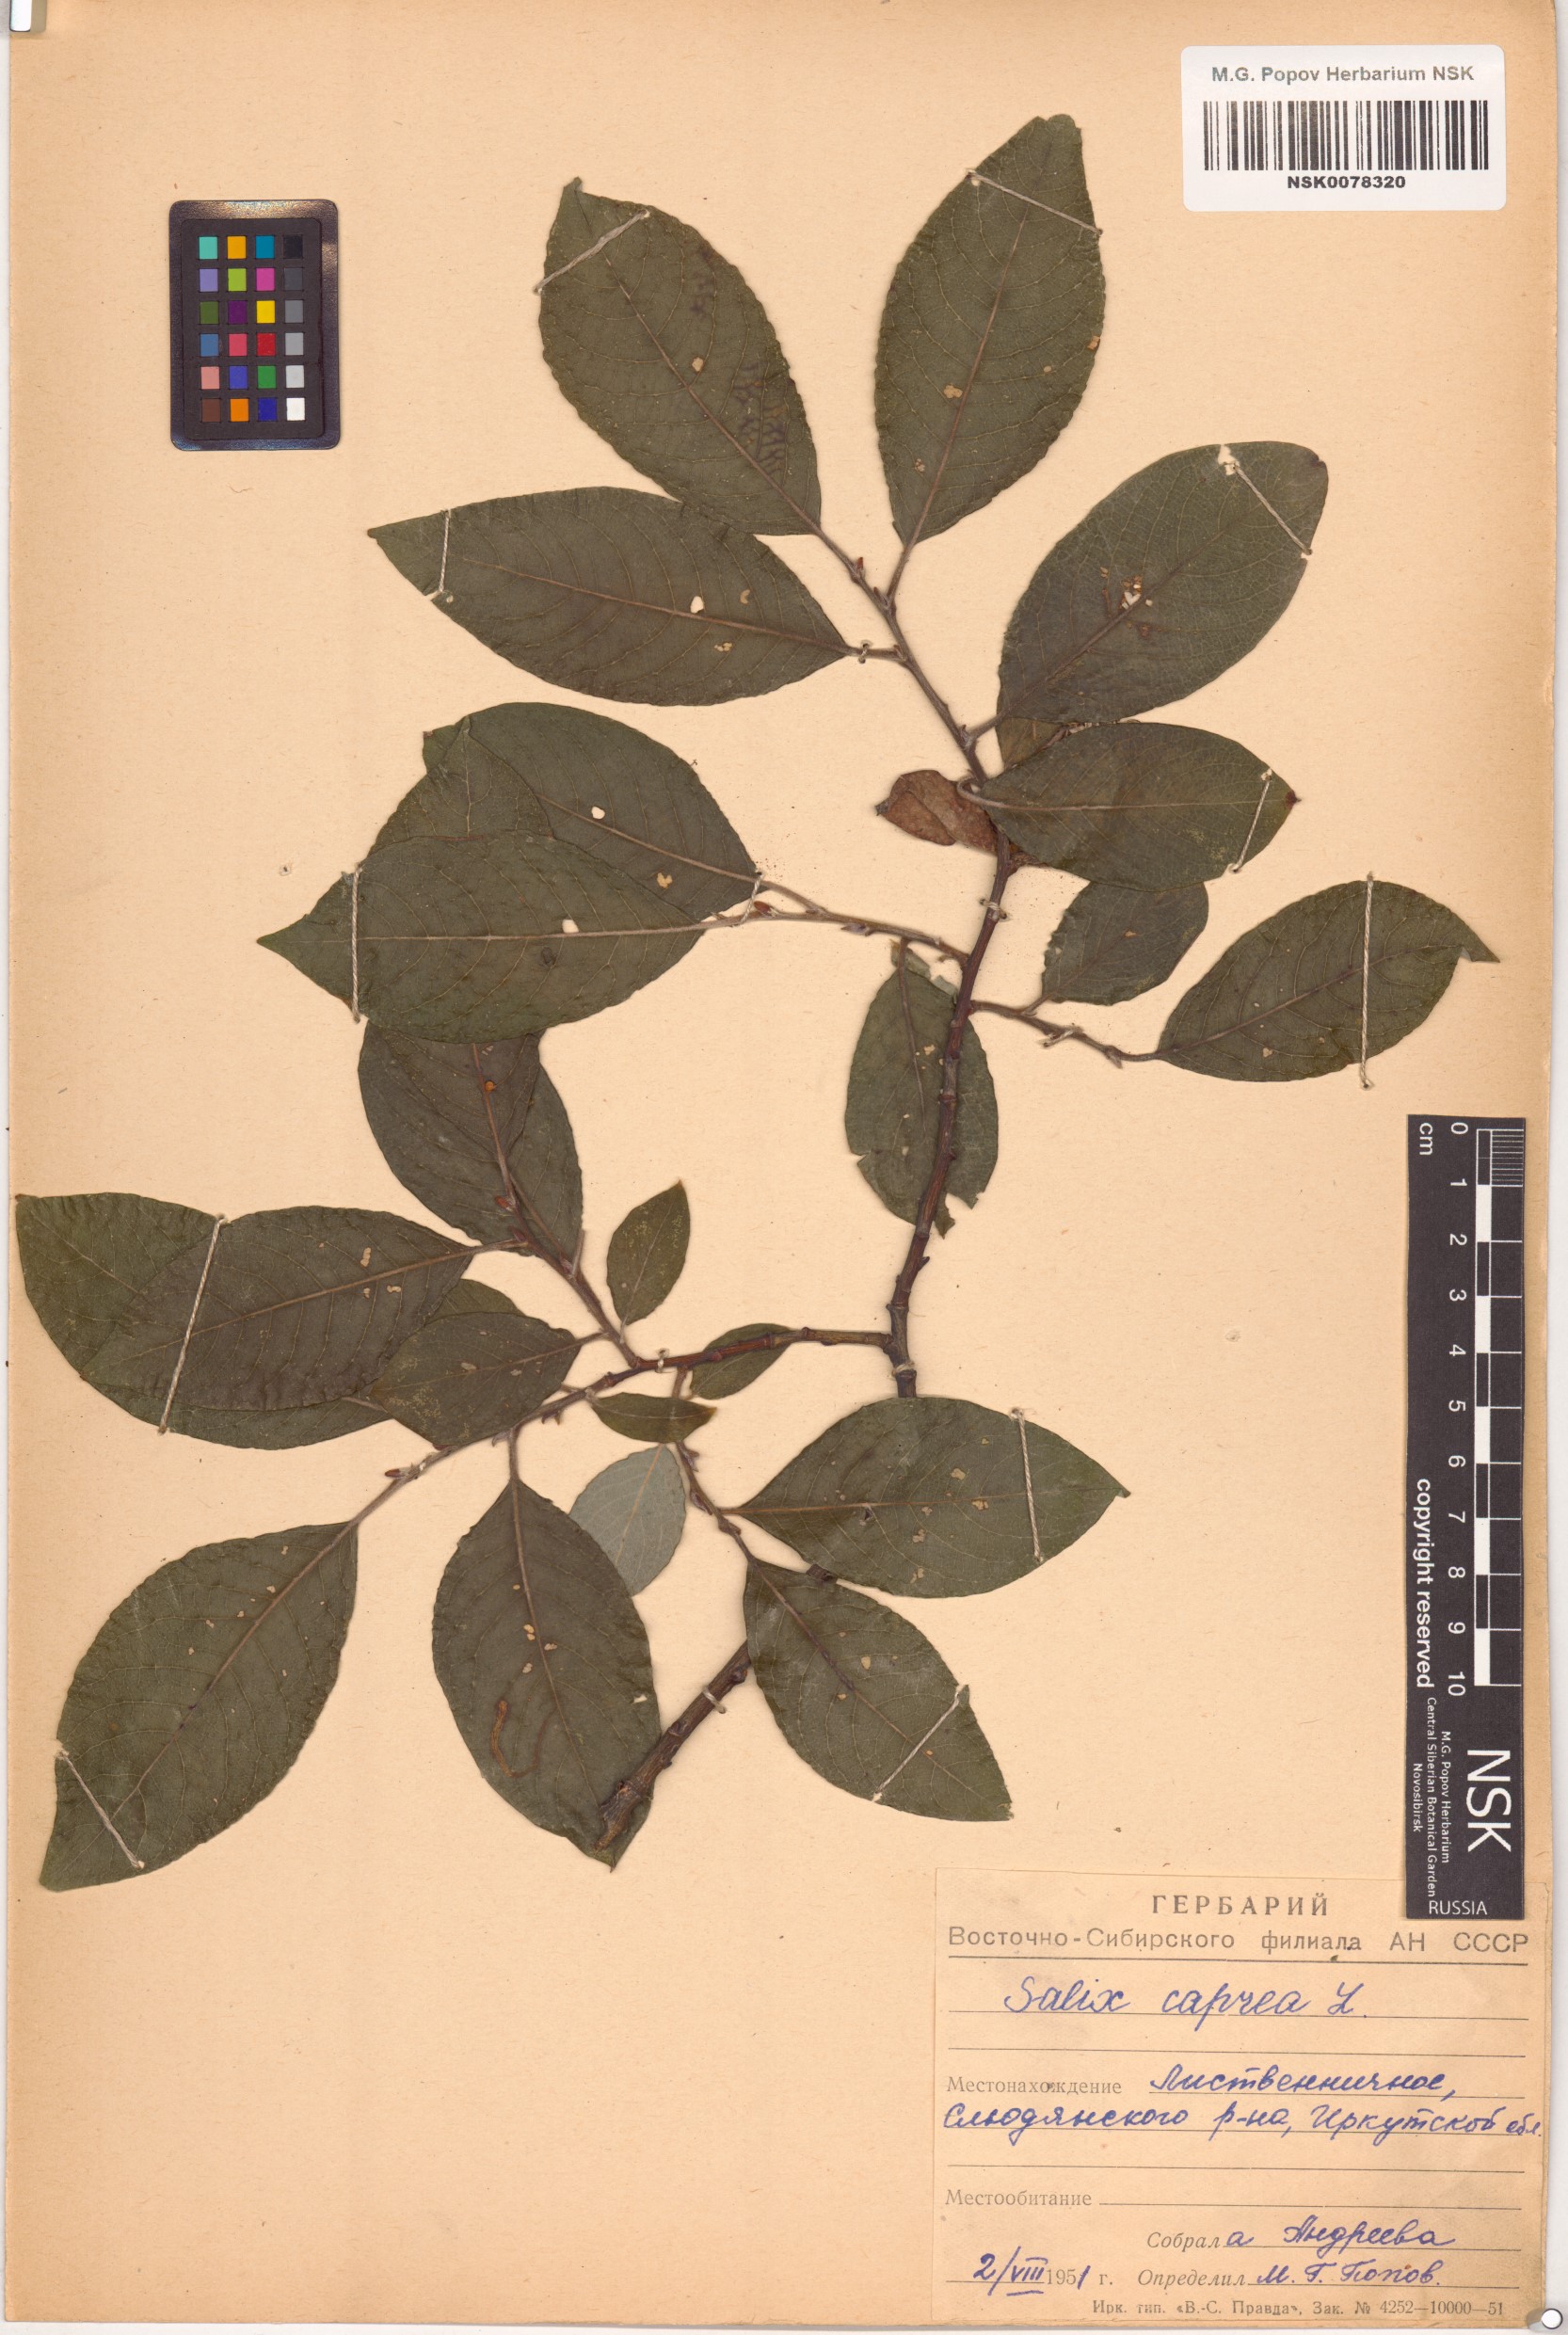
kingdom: Plantae
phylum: Tracheophyta
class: Magnoliopsida
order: Malpighiales
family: Salicaceae
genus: Salix
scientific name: Salix caprea
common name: Goat willow
